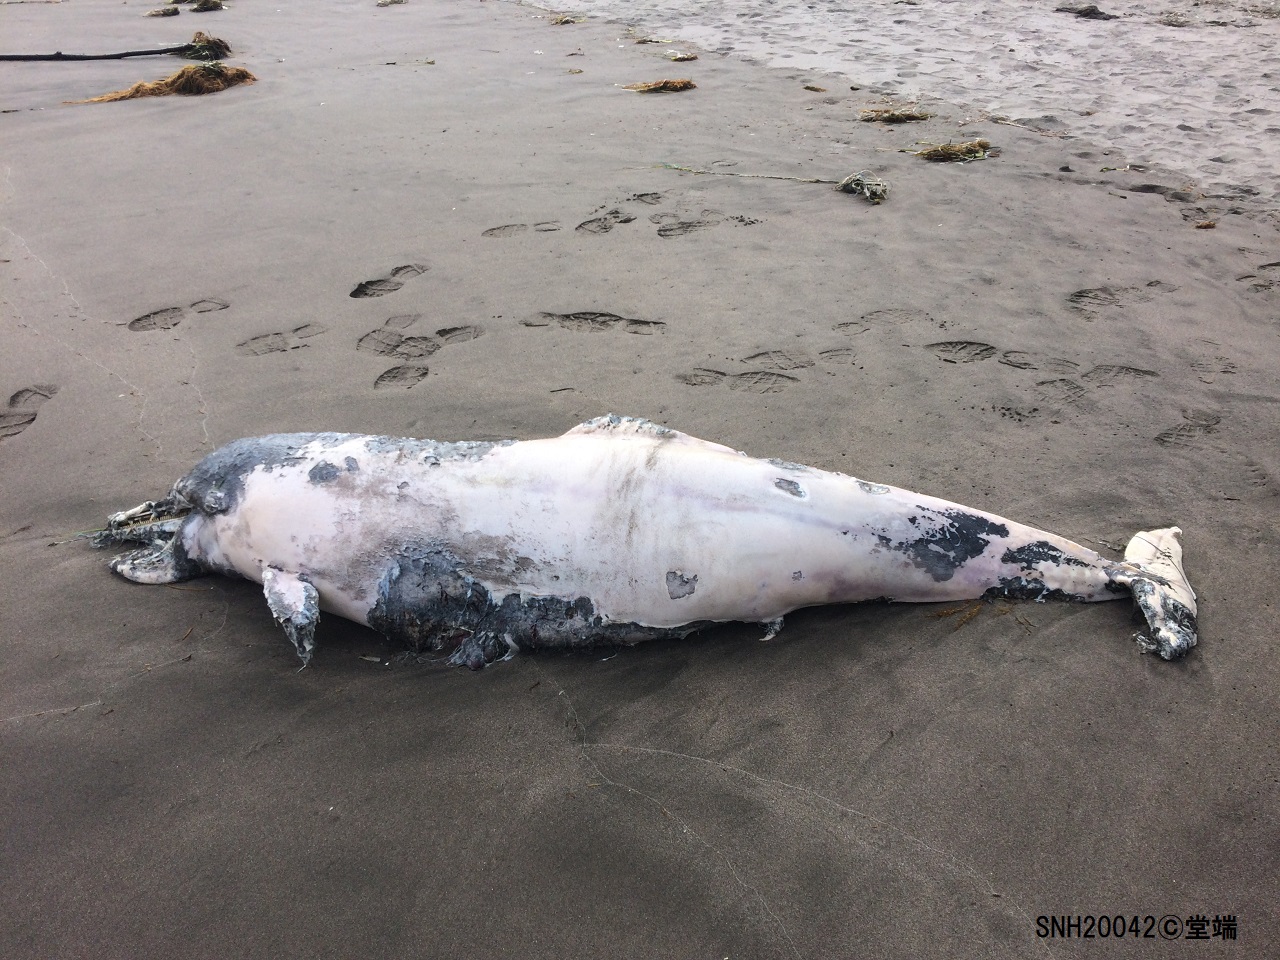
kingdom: Animalia
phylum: Chordata
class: Mammalia
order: Cetacea
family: Delphinidae
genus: Lagenorhynchus
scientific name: Lagenorhynchus obliquidens
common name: Pacific white-sided dolphin
